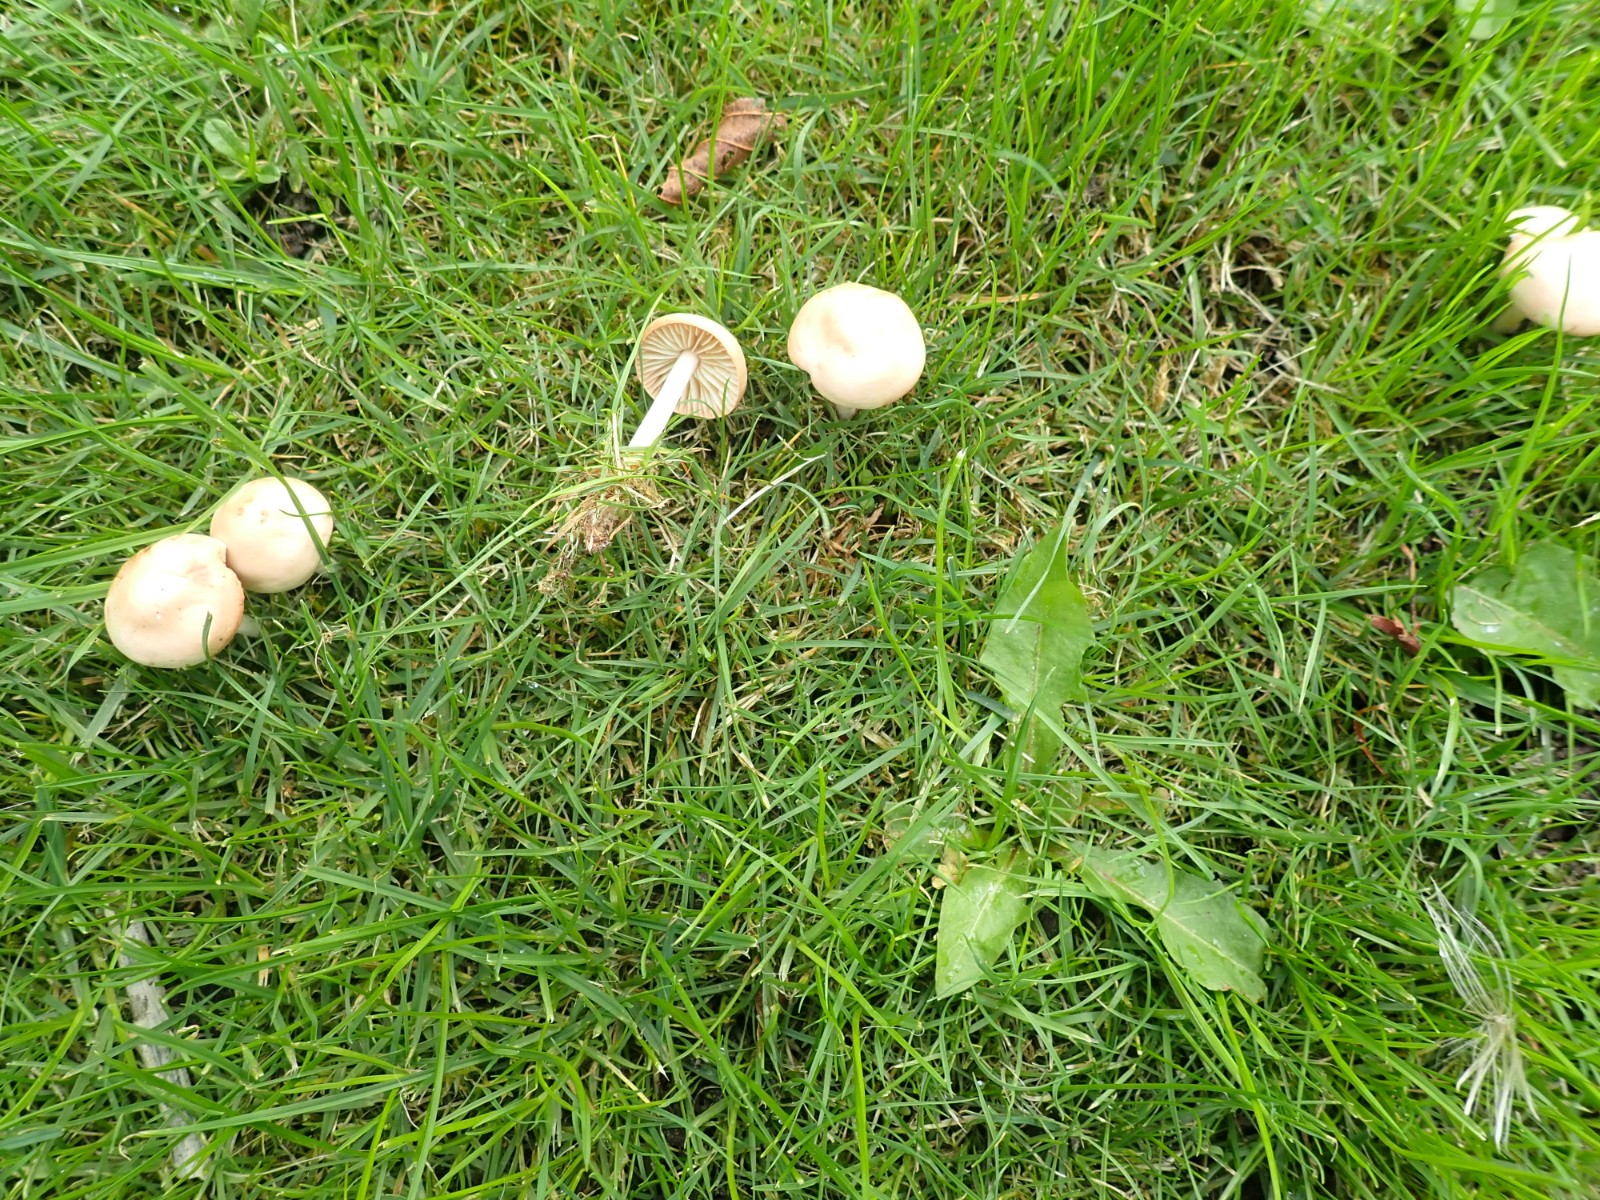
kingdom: Fungi
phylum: Basidiomycota
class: Agaricomycetes
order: Agaricales
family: Marasmiaceae
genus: Marasmius
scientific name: Marasmius oreades
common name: elledans-bruskhat
